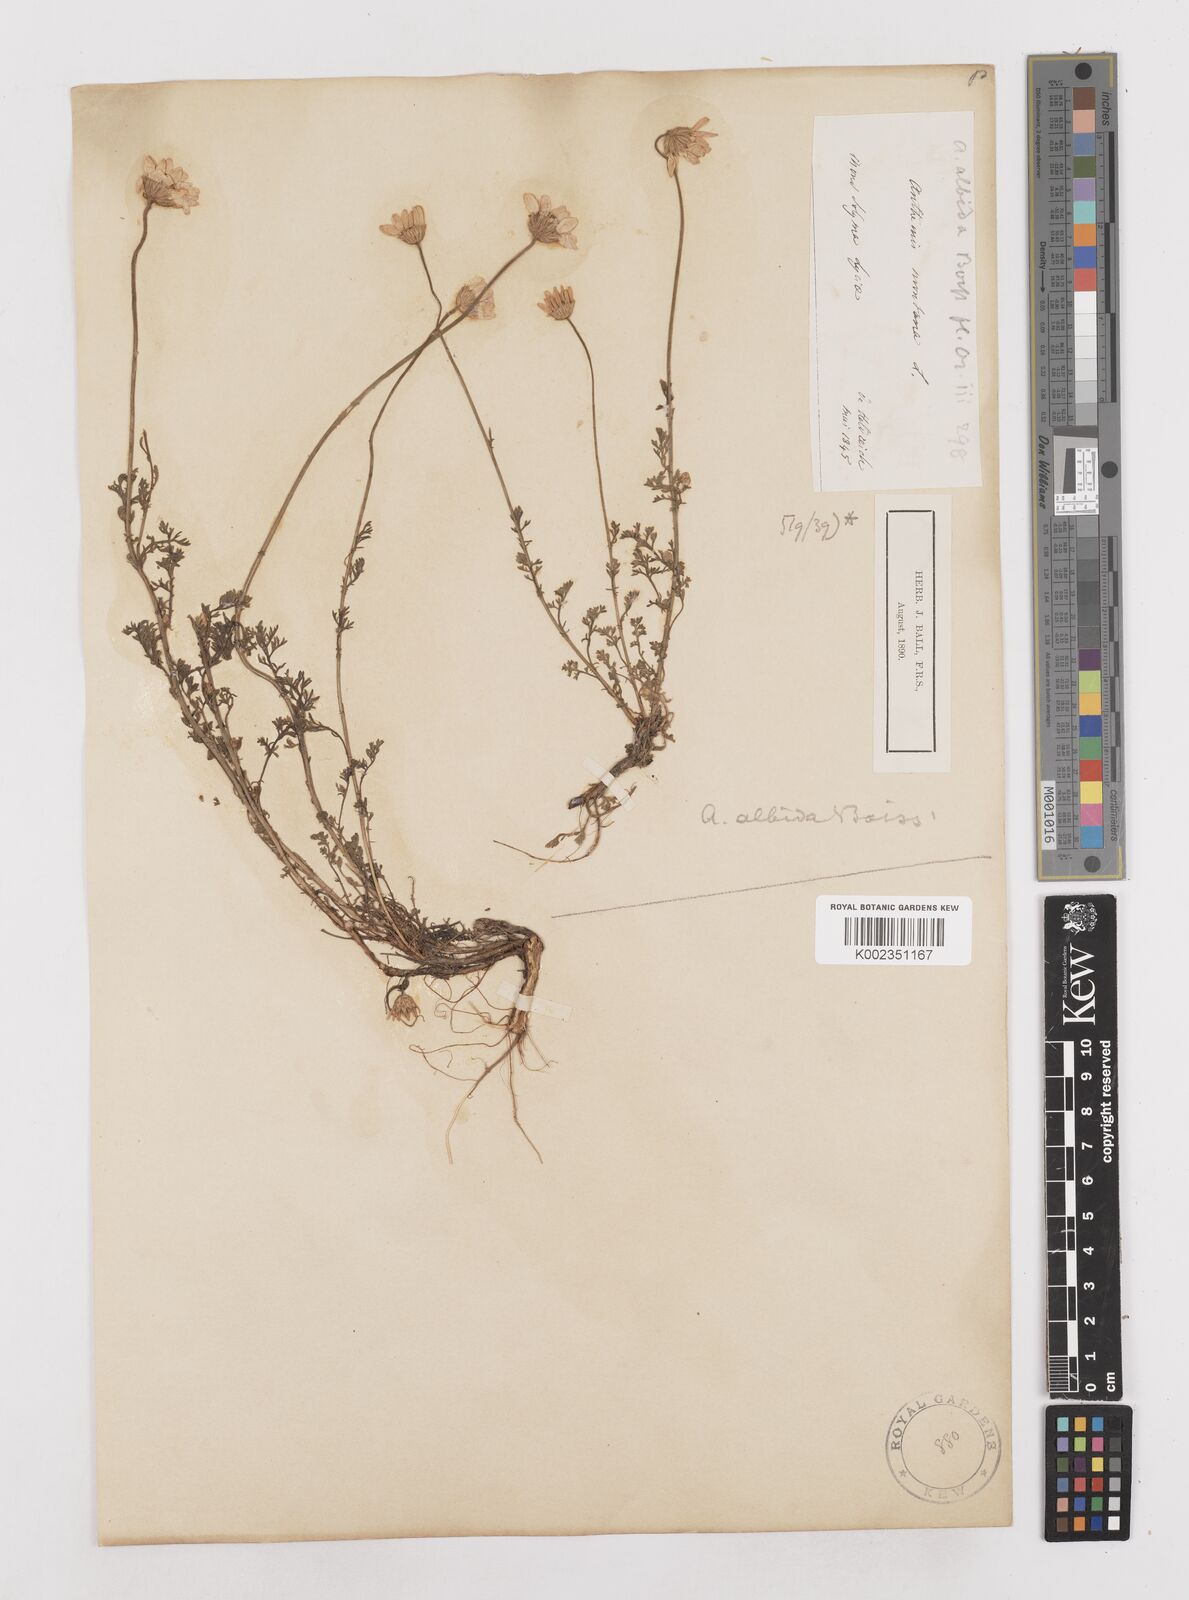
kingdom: Plantae
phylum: Tracheophyta
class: Magnoliopsida
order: Asterales
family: Asteraceae
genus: Anthemis
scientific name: Anthemis cretica
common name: Mountain dog-daisy
